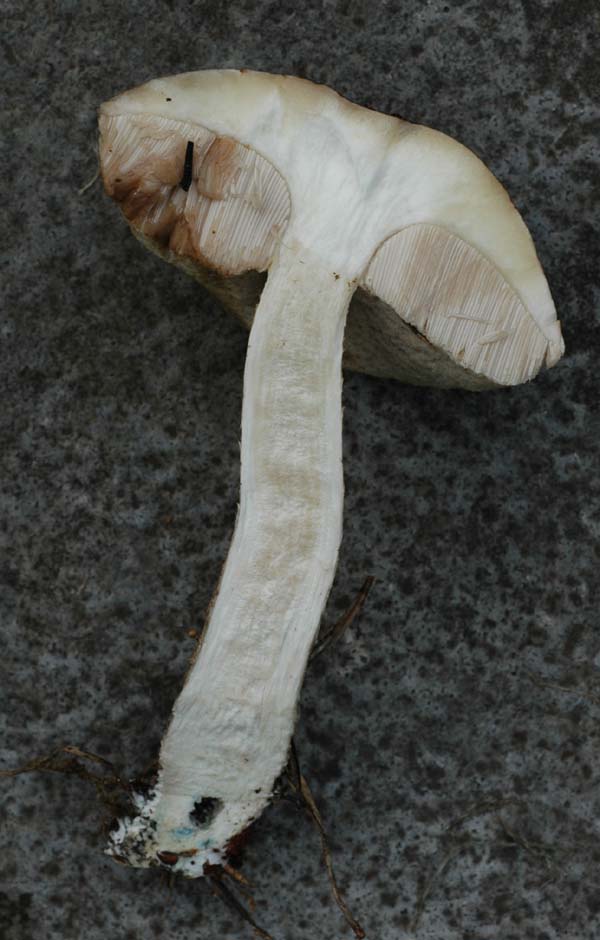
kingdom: Fungi
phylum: Basidiomycota
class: Agaricomycetes
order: Boletales
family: Boletaceae
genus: Leccinum
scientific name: Leccinum
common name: skælrørhat
